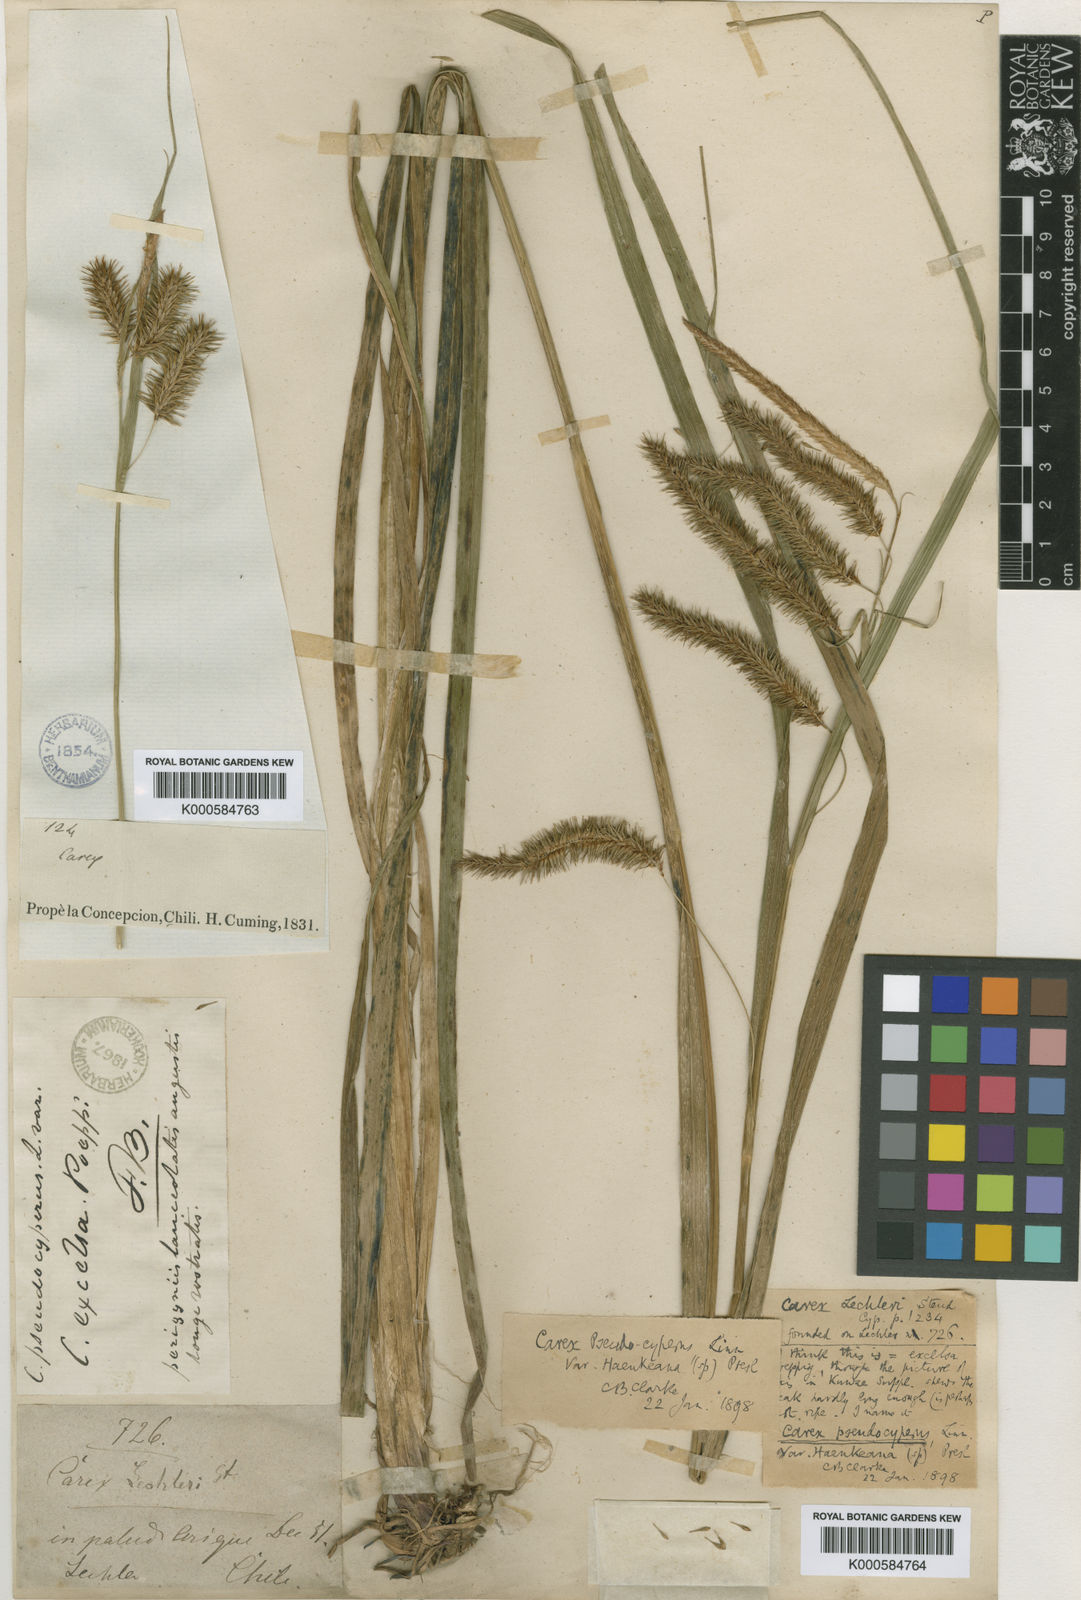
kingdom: Plantae
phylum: Tracheophyta
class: Liliopsida
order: Poales
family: Cyperaceae
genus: Carex
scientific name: Carex pseudocyperus
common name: Cyperus sedge
